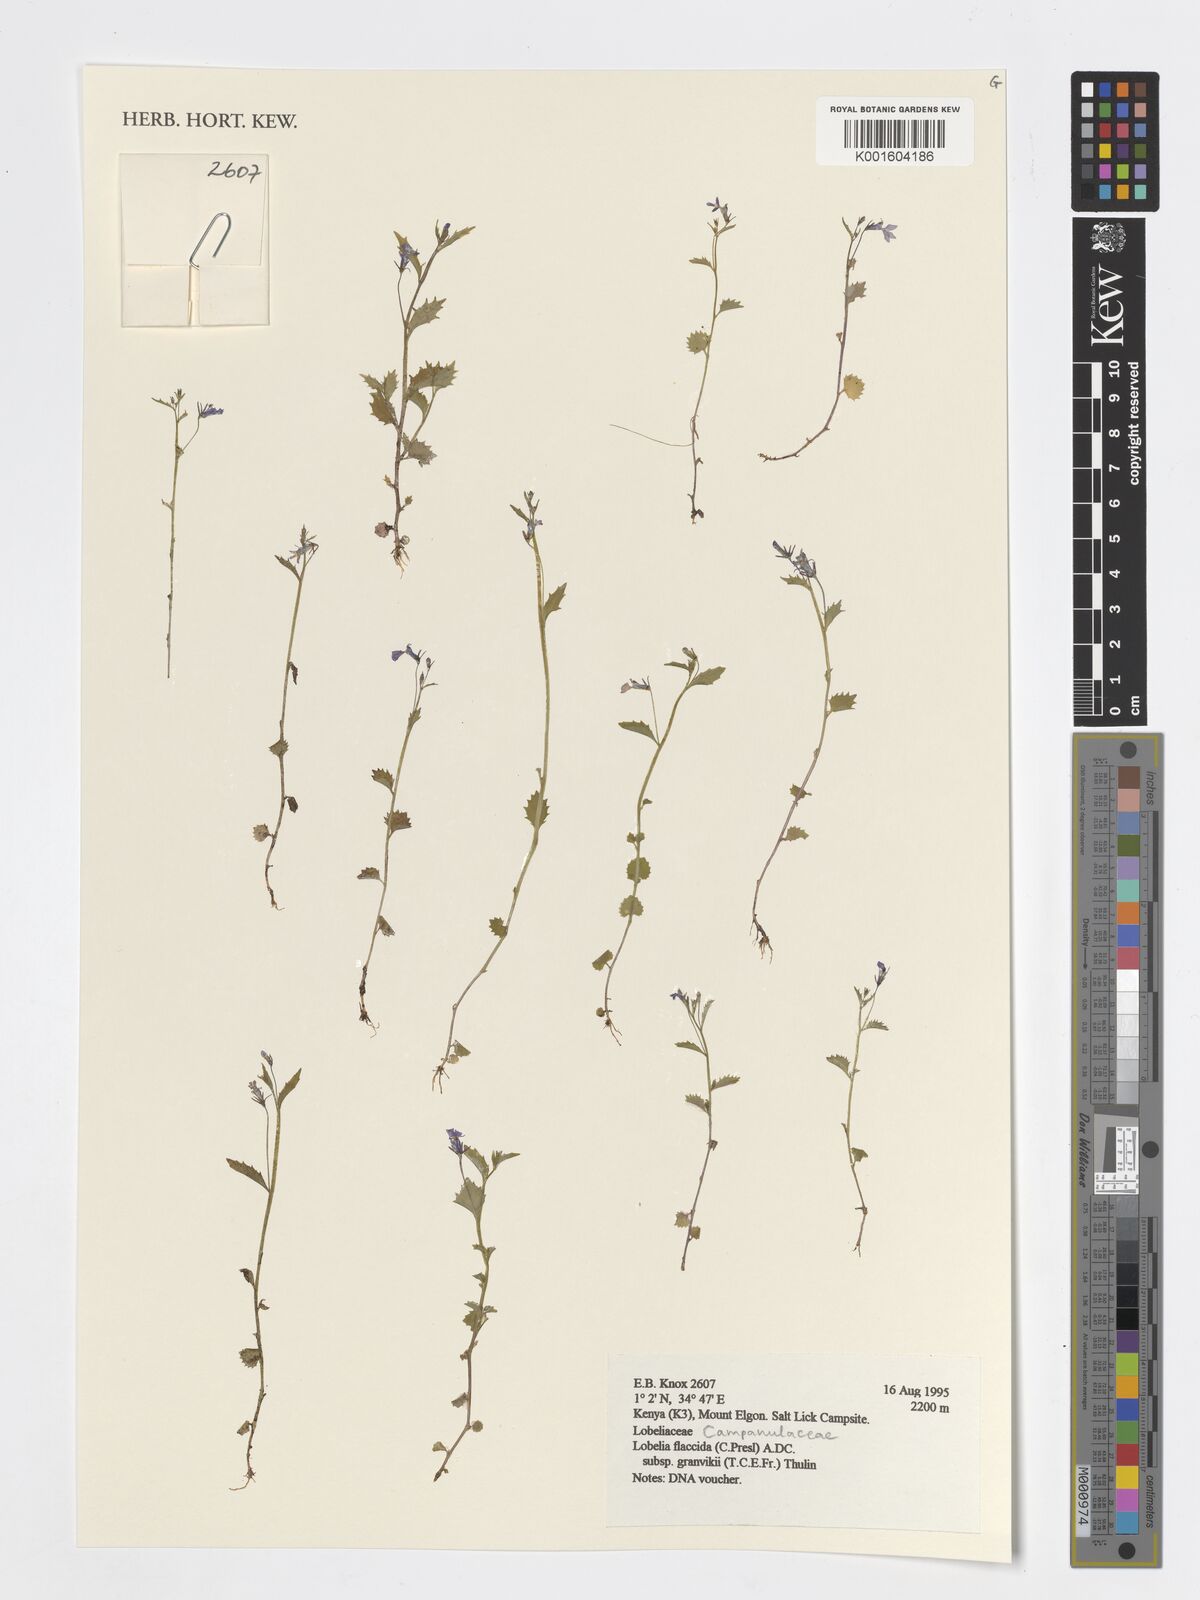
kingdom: Plantae
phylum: Tracheophyta
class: Magnoliopsida
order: Asterales
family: Campanulaceae
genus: Lobelia
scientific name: Lobelia flaccida
